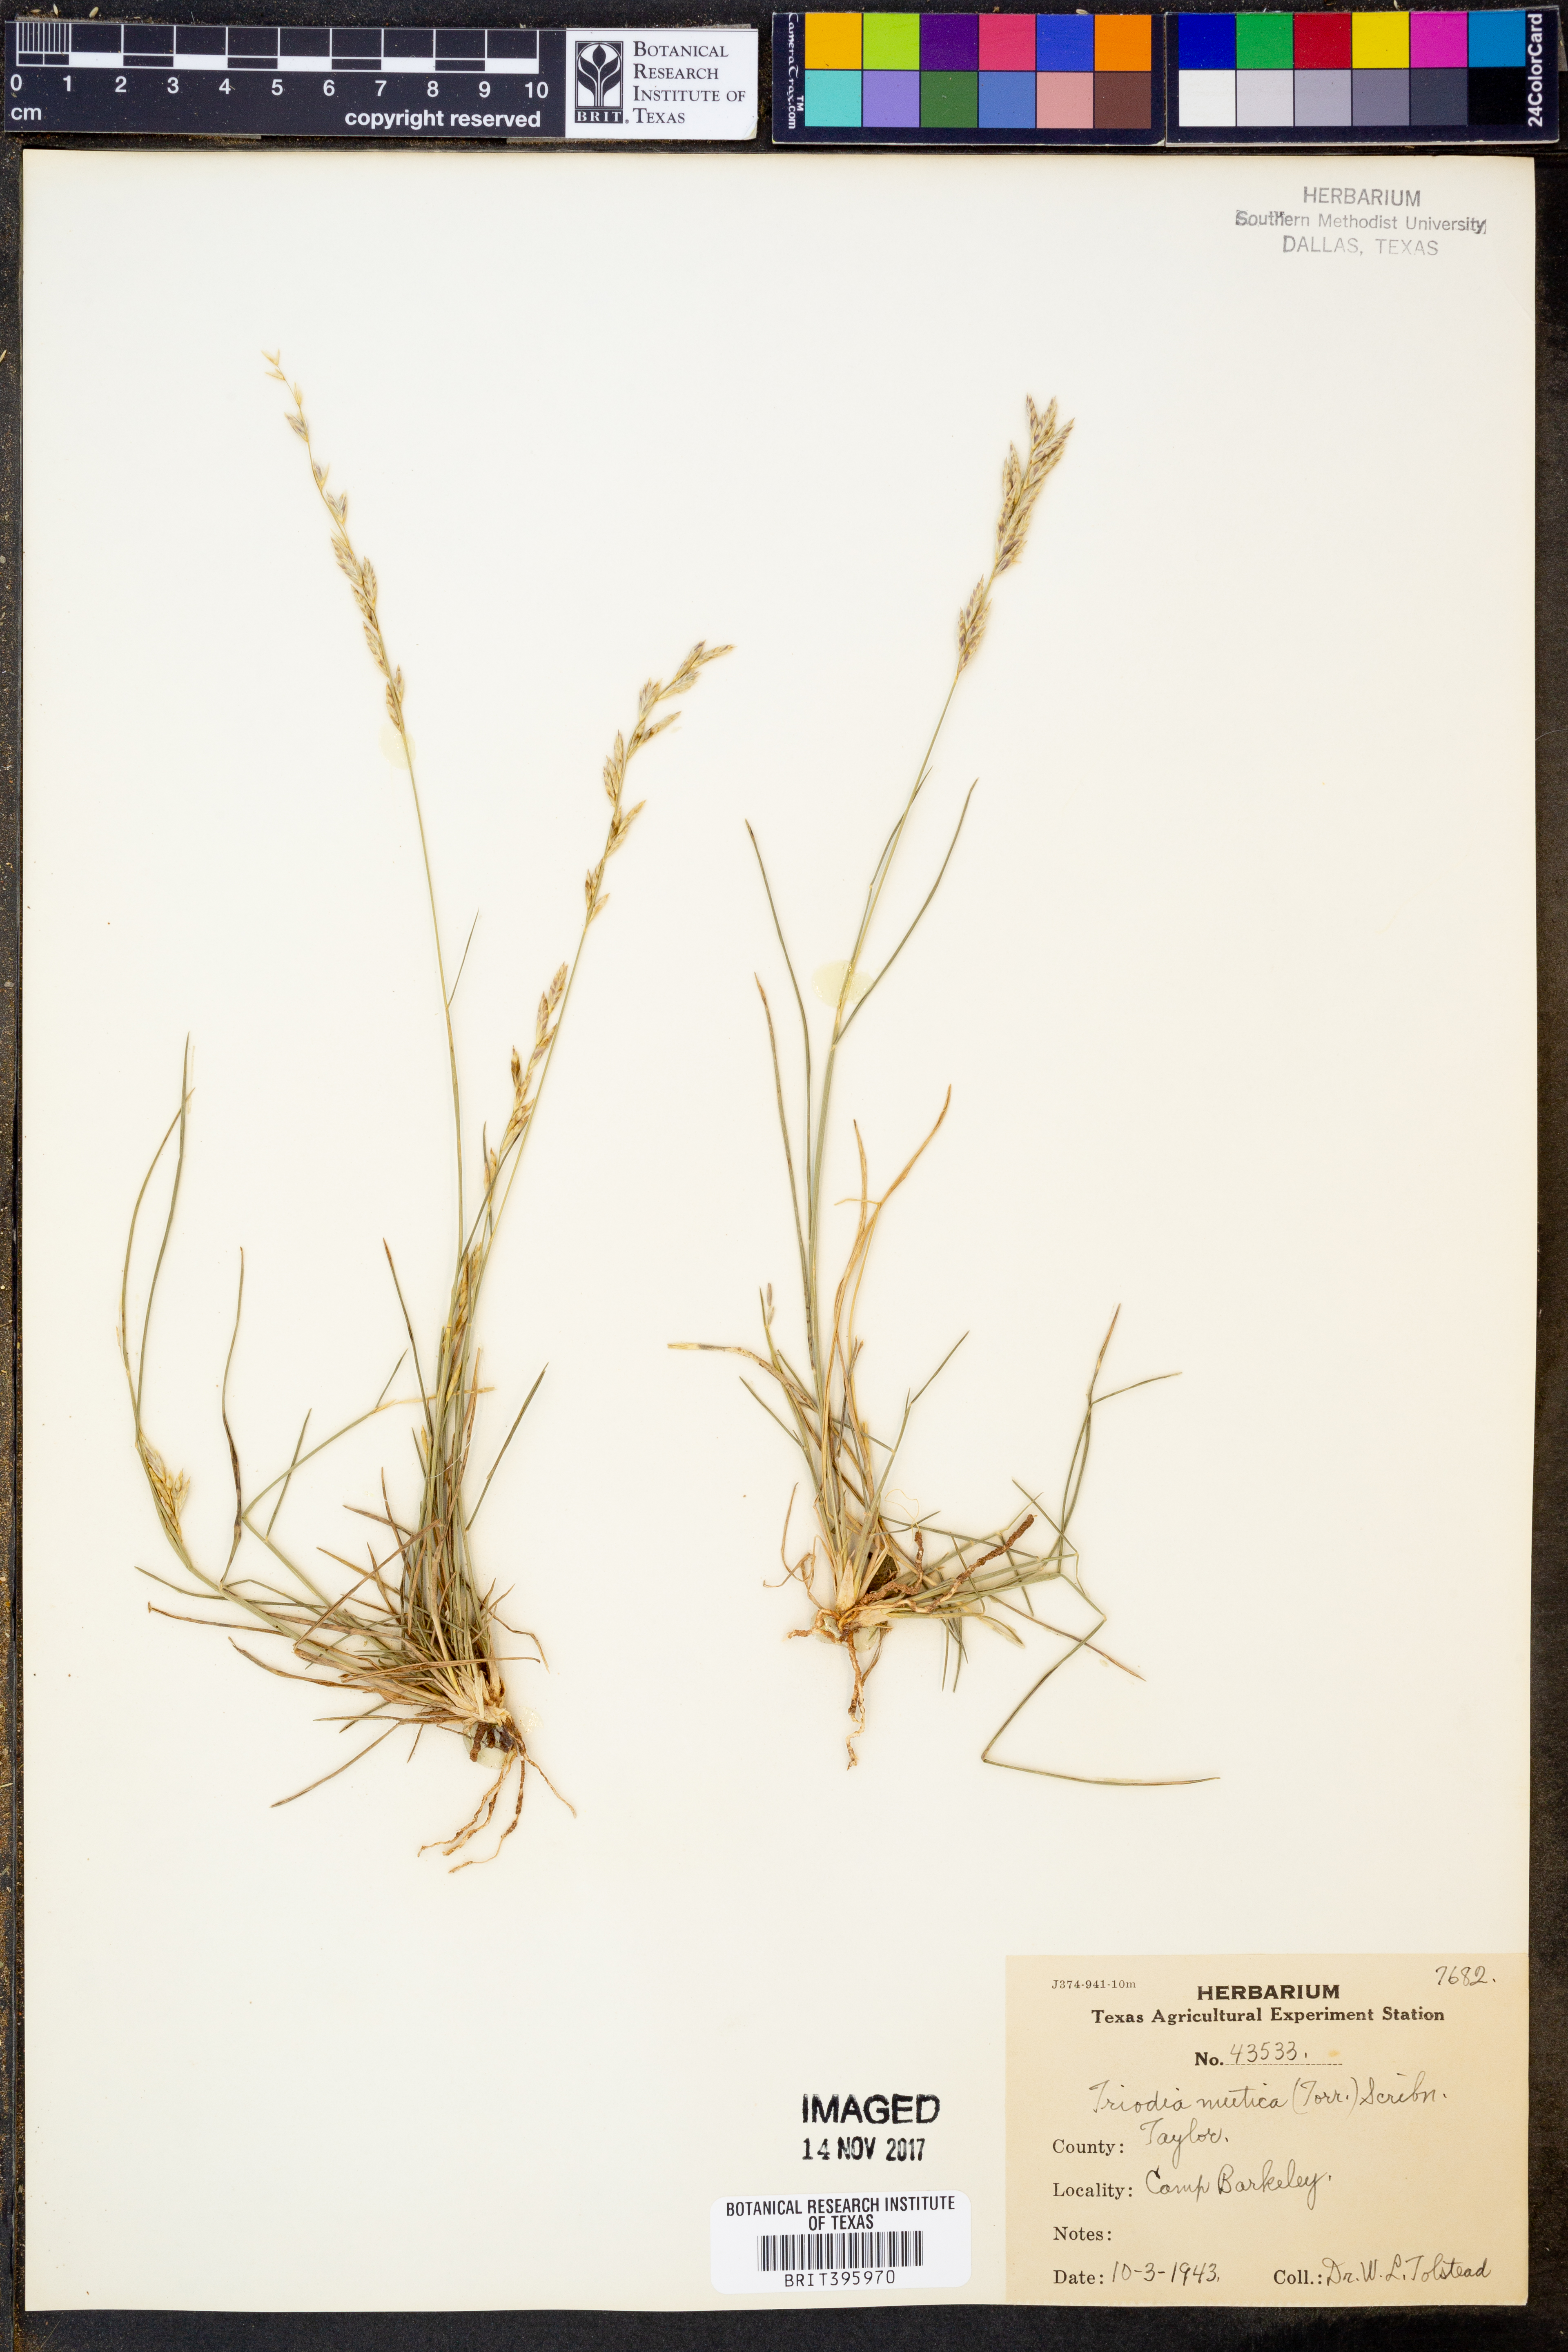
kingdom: Plantae
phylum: Tracheophyta
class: Liliopsida
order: Poales
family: Poaceae
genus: Tridentopsis
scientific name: Tridentopsis mutica
